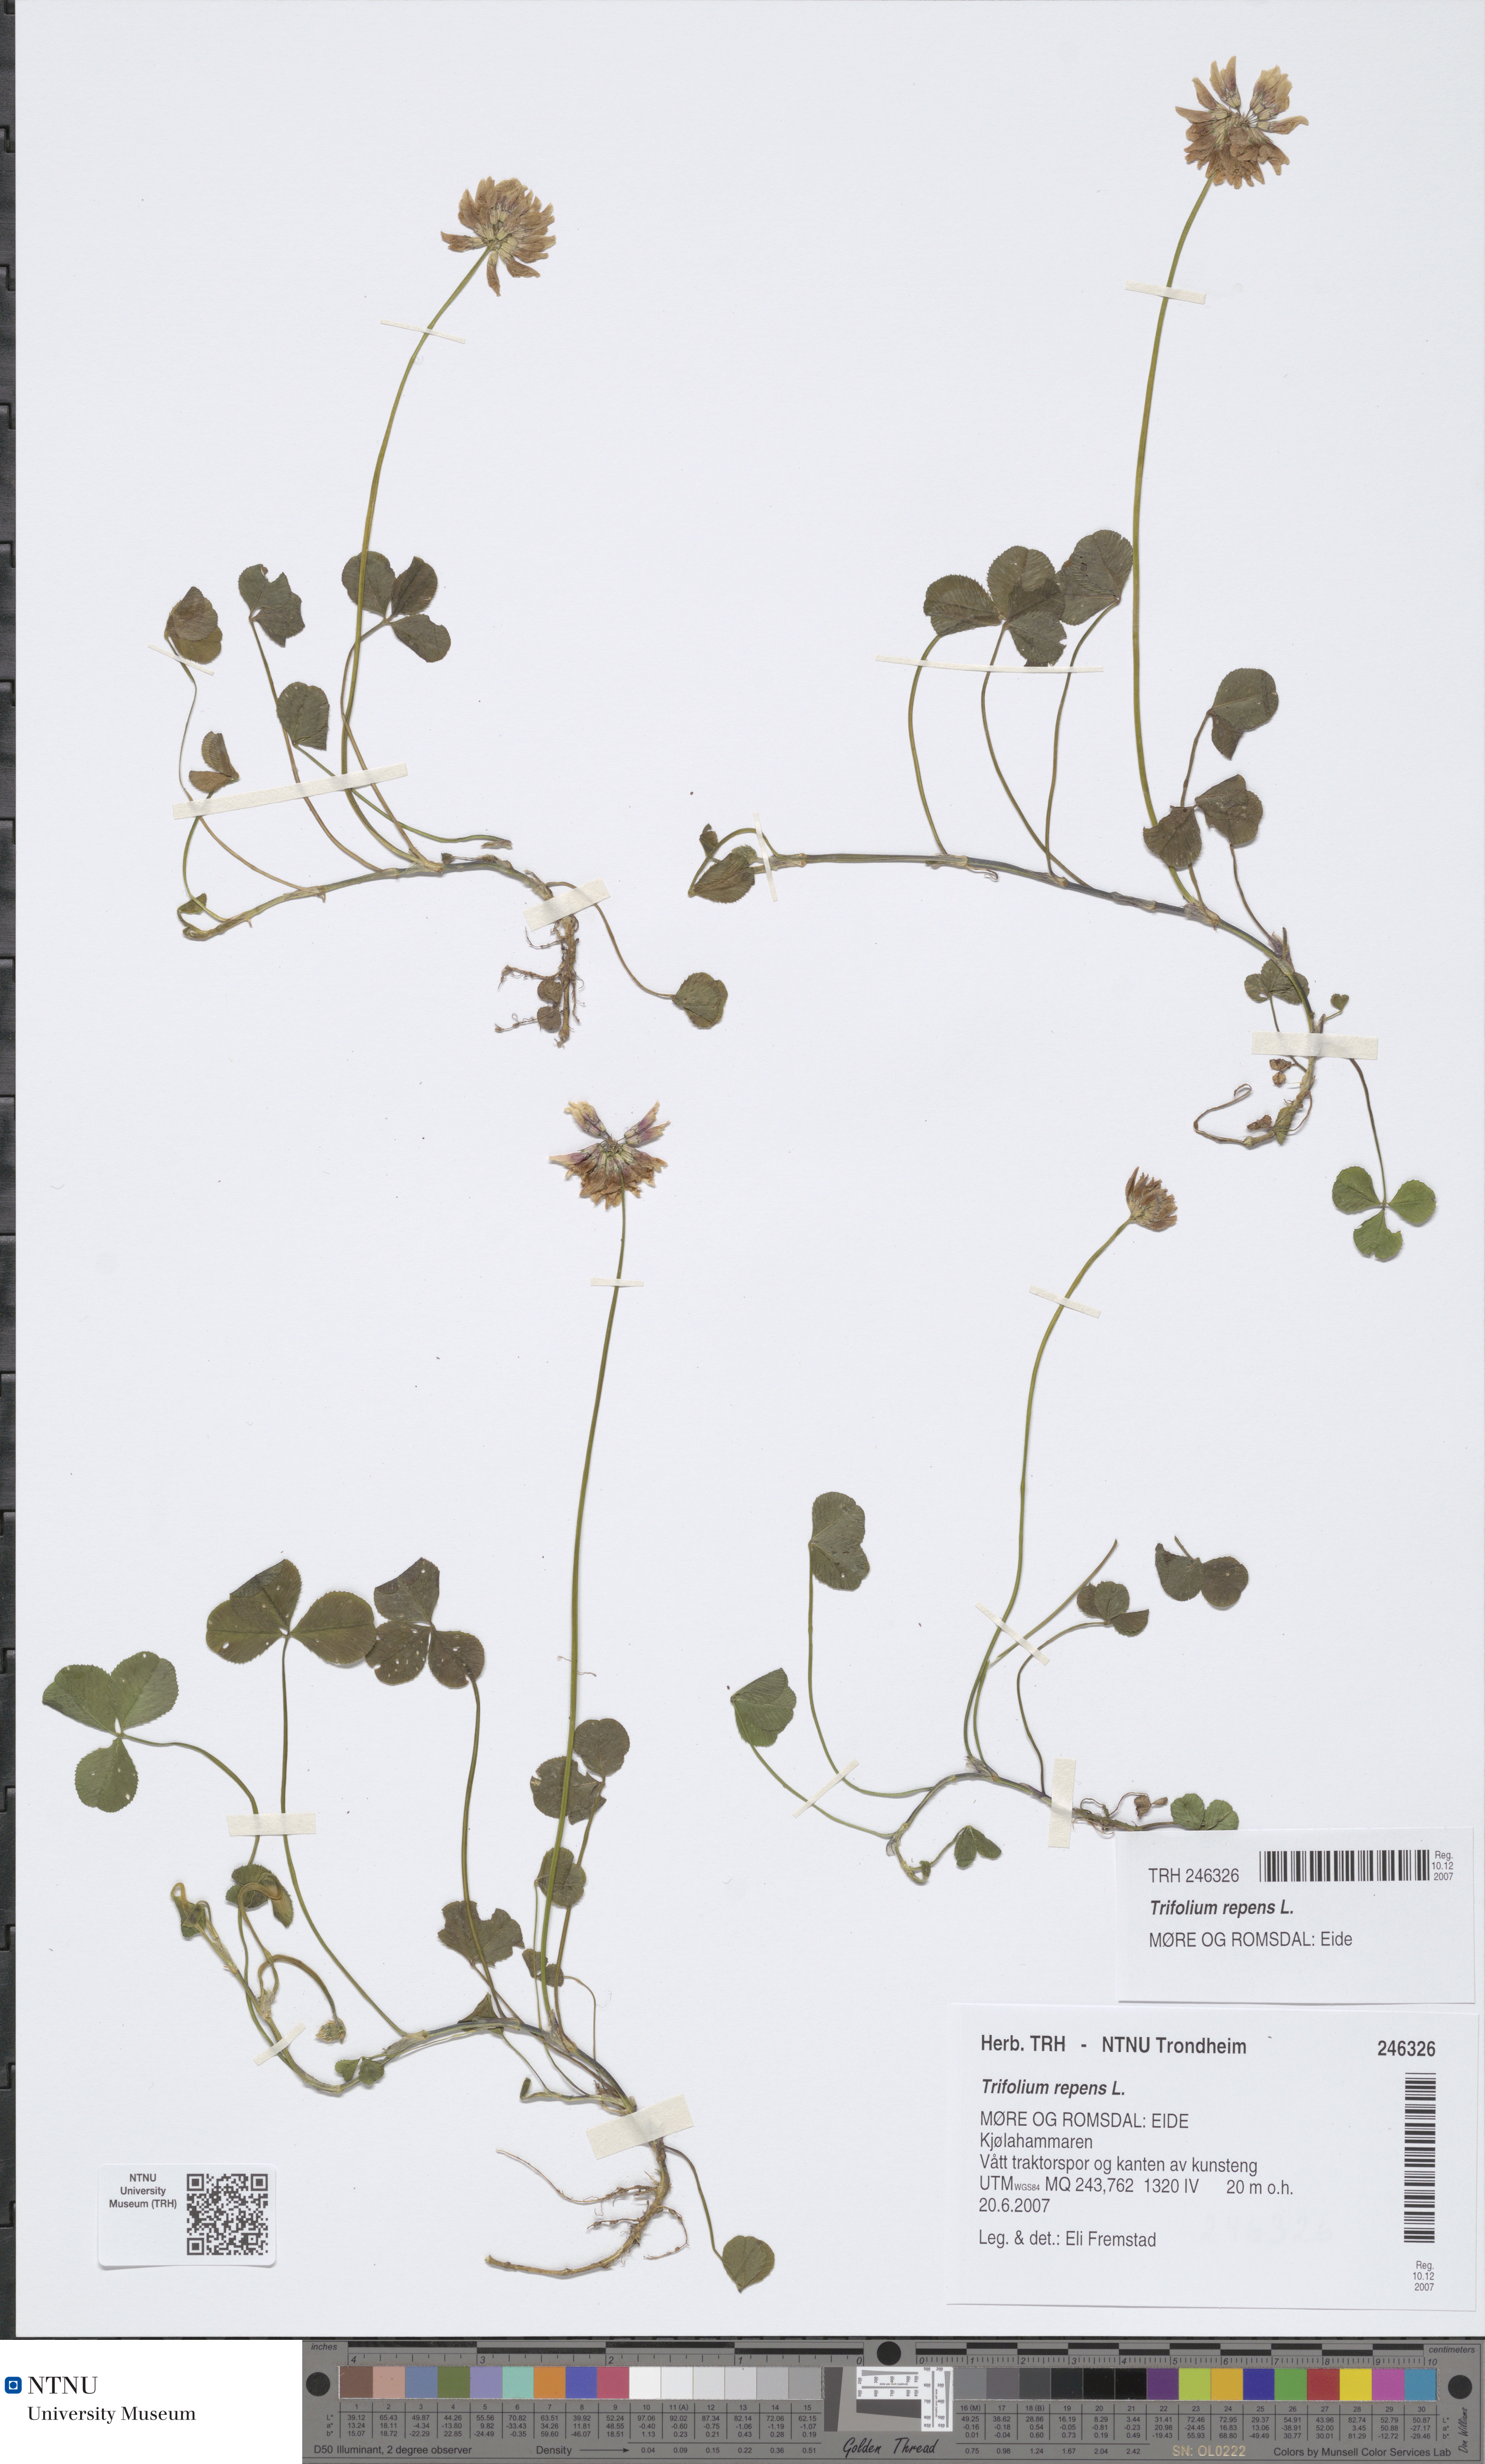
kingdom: Plantae
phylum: Tracheophyta
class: Magnoliopsida
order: Fabales
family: Fabaceae
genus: Trifolium
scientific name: Trifolium repens
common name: White clover
